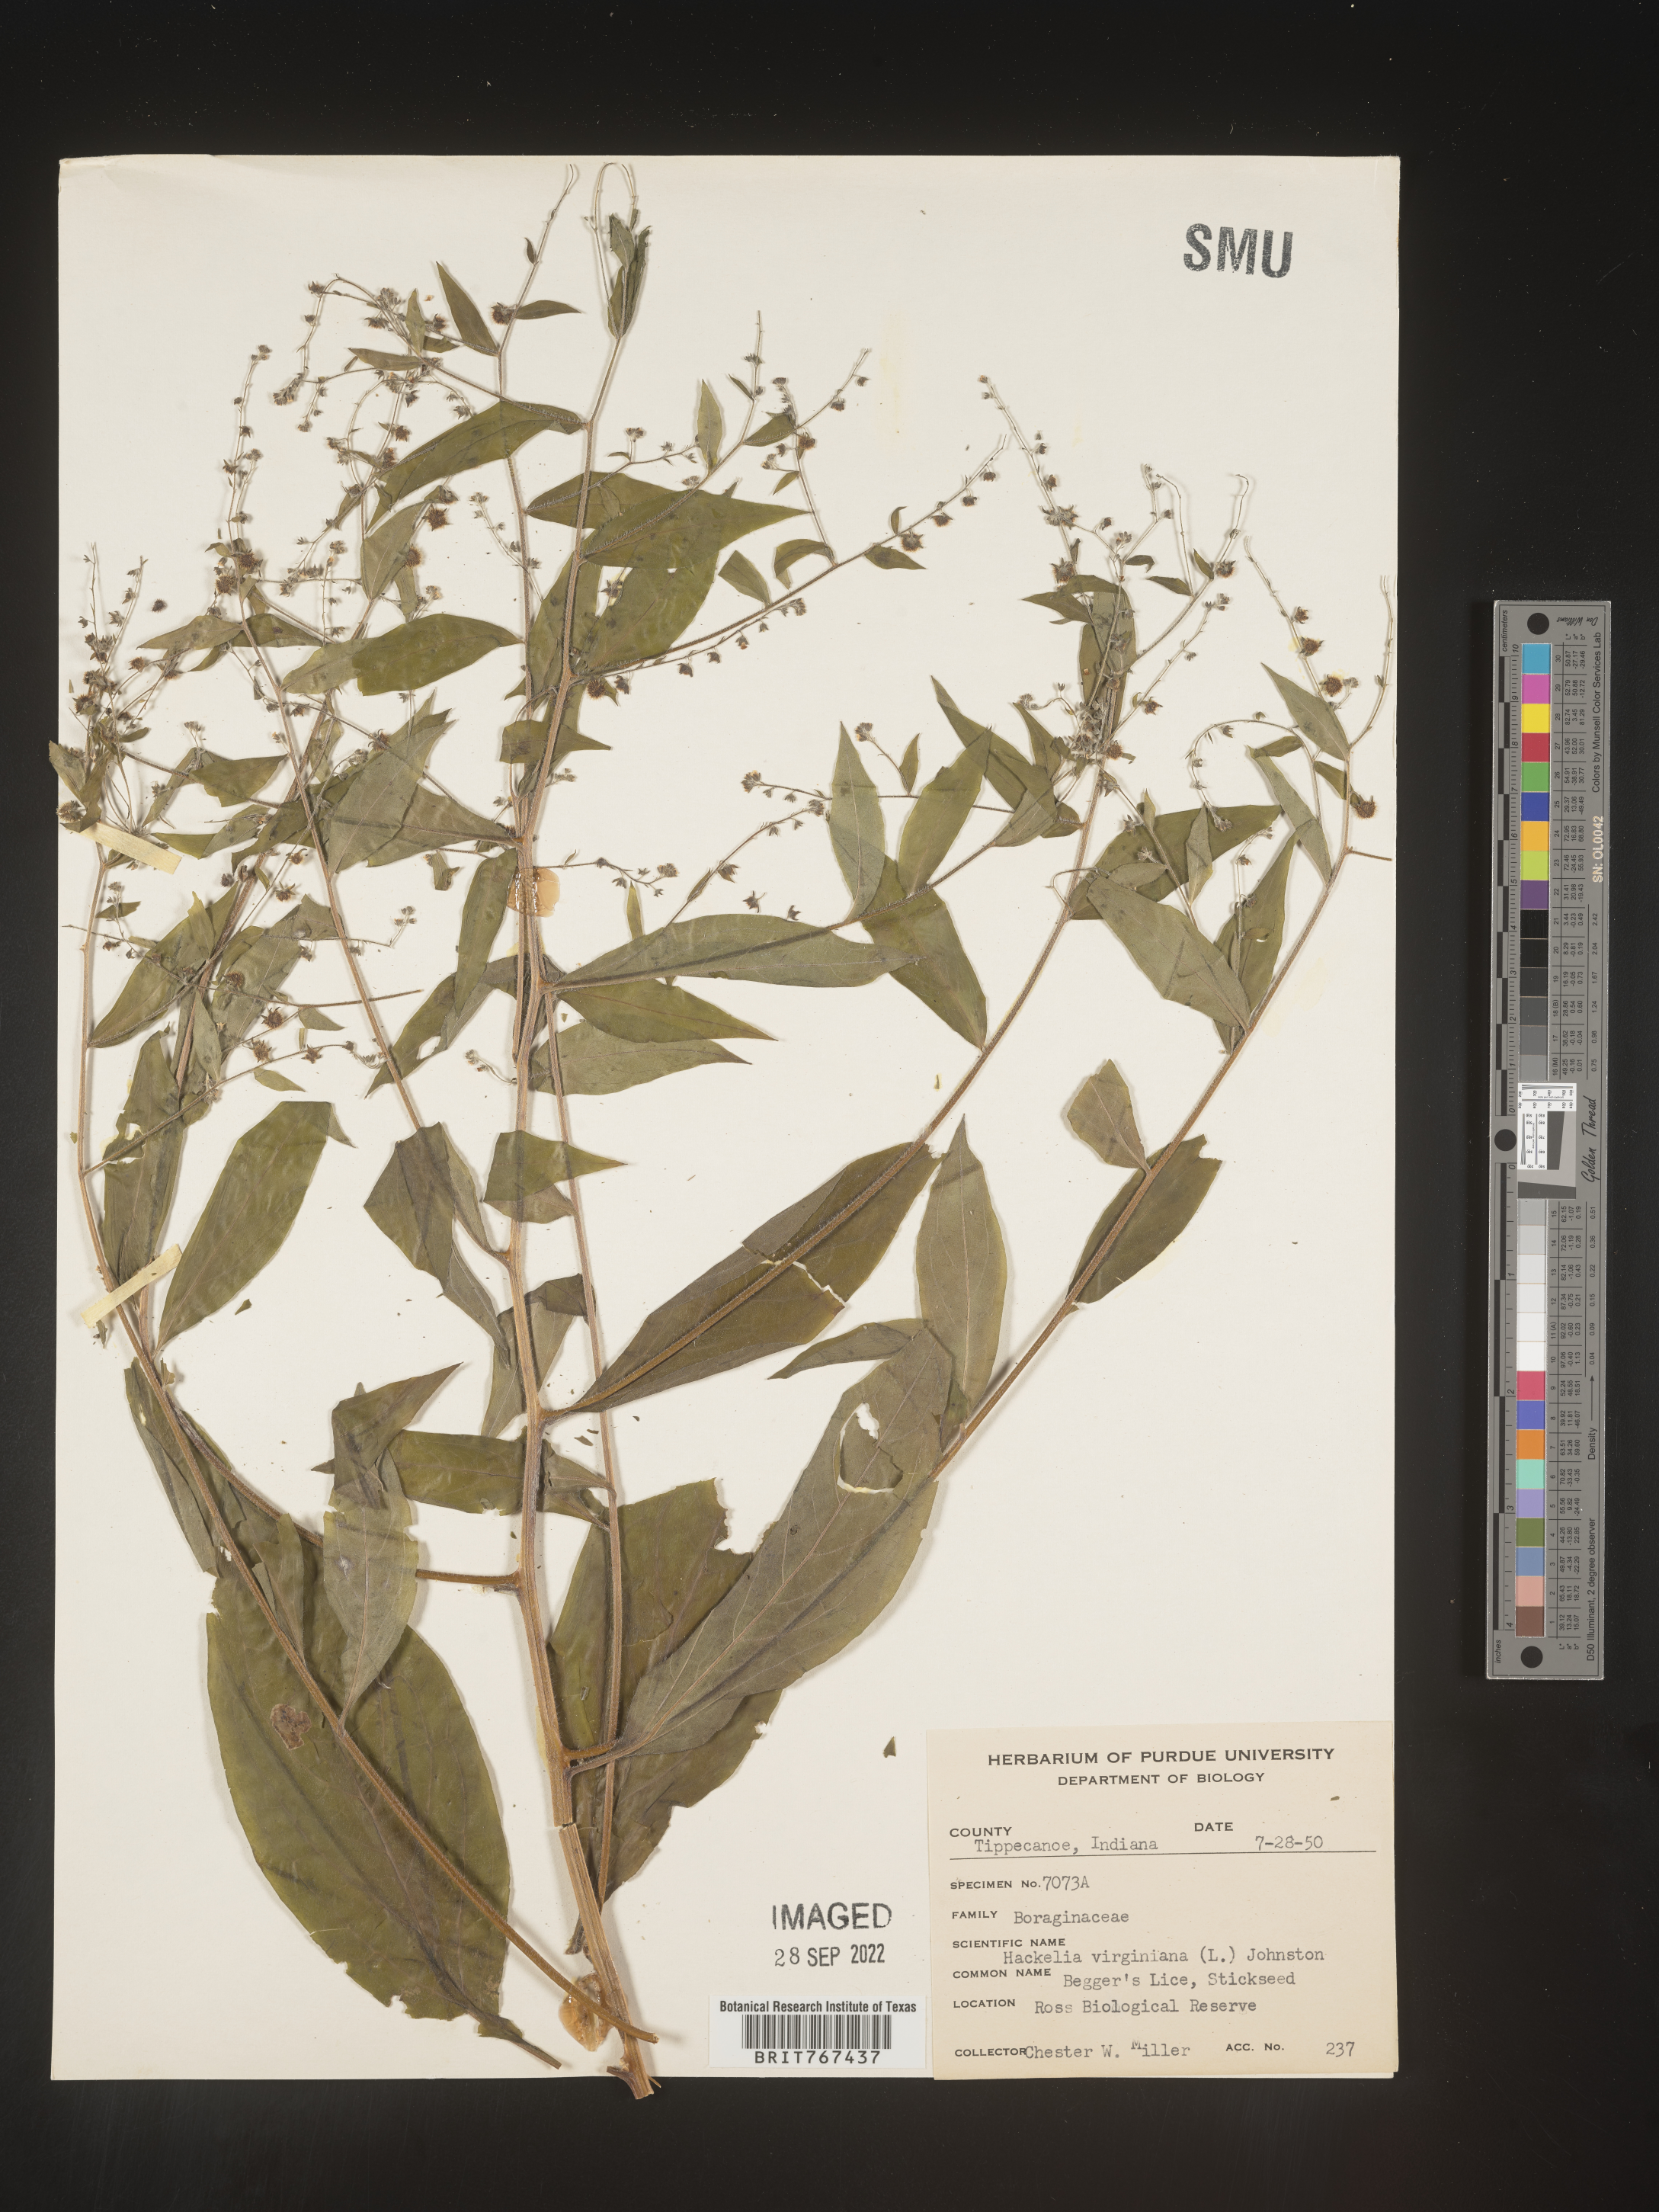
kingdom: Plantae
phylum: Tracheophyta
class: Magnoliopsida
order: Boraginales
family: Boraginaceae
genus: Hackelia
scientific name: Hackelia virginiana
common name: Beggar's-lice
